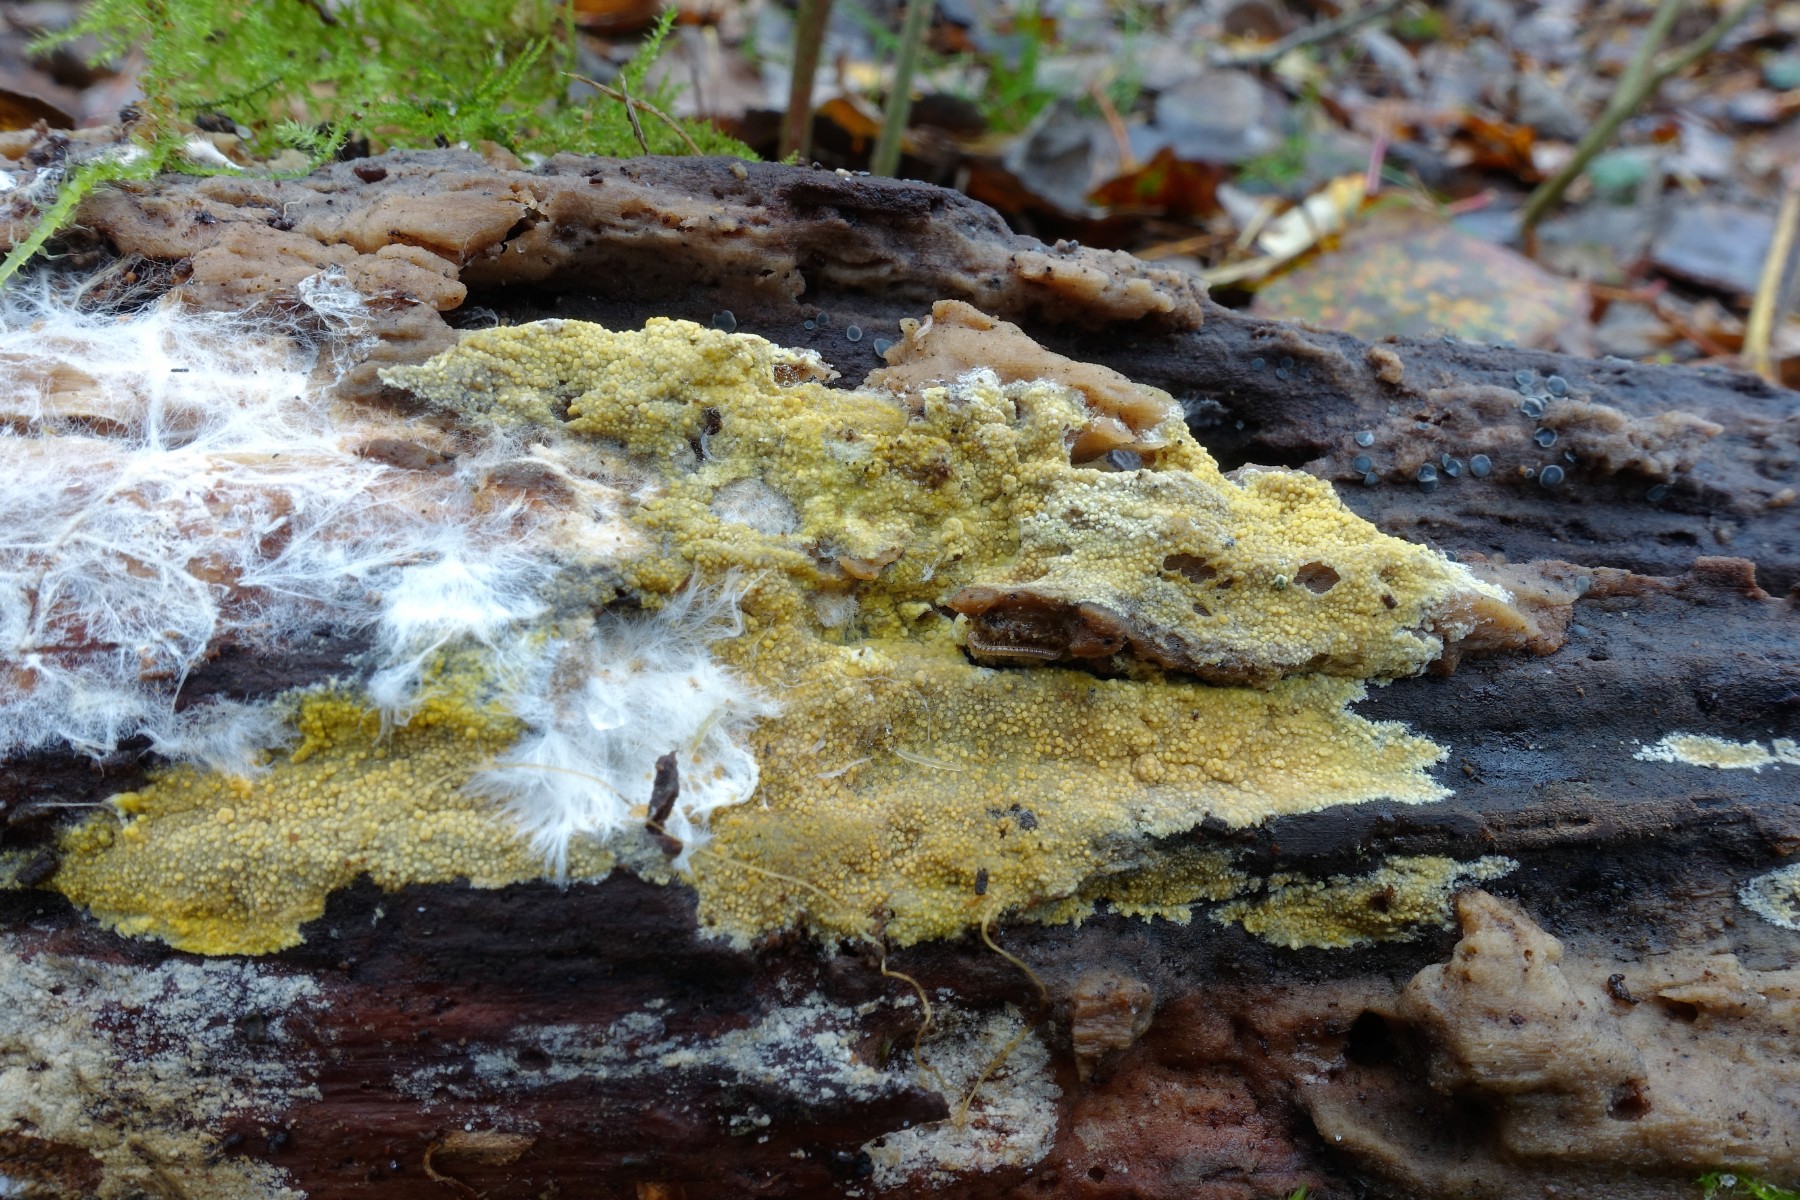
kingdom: Fungi
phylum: Basidiomycota
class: Agaricomycetes
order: Polyporales
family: Meruliaceae
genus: Phlebiodontia
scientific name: Phlebiodontia subochracea
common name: svovl-åresvamp
